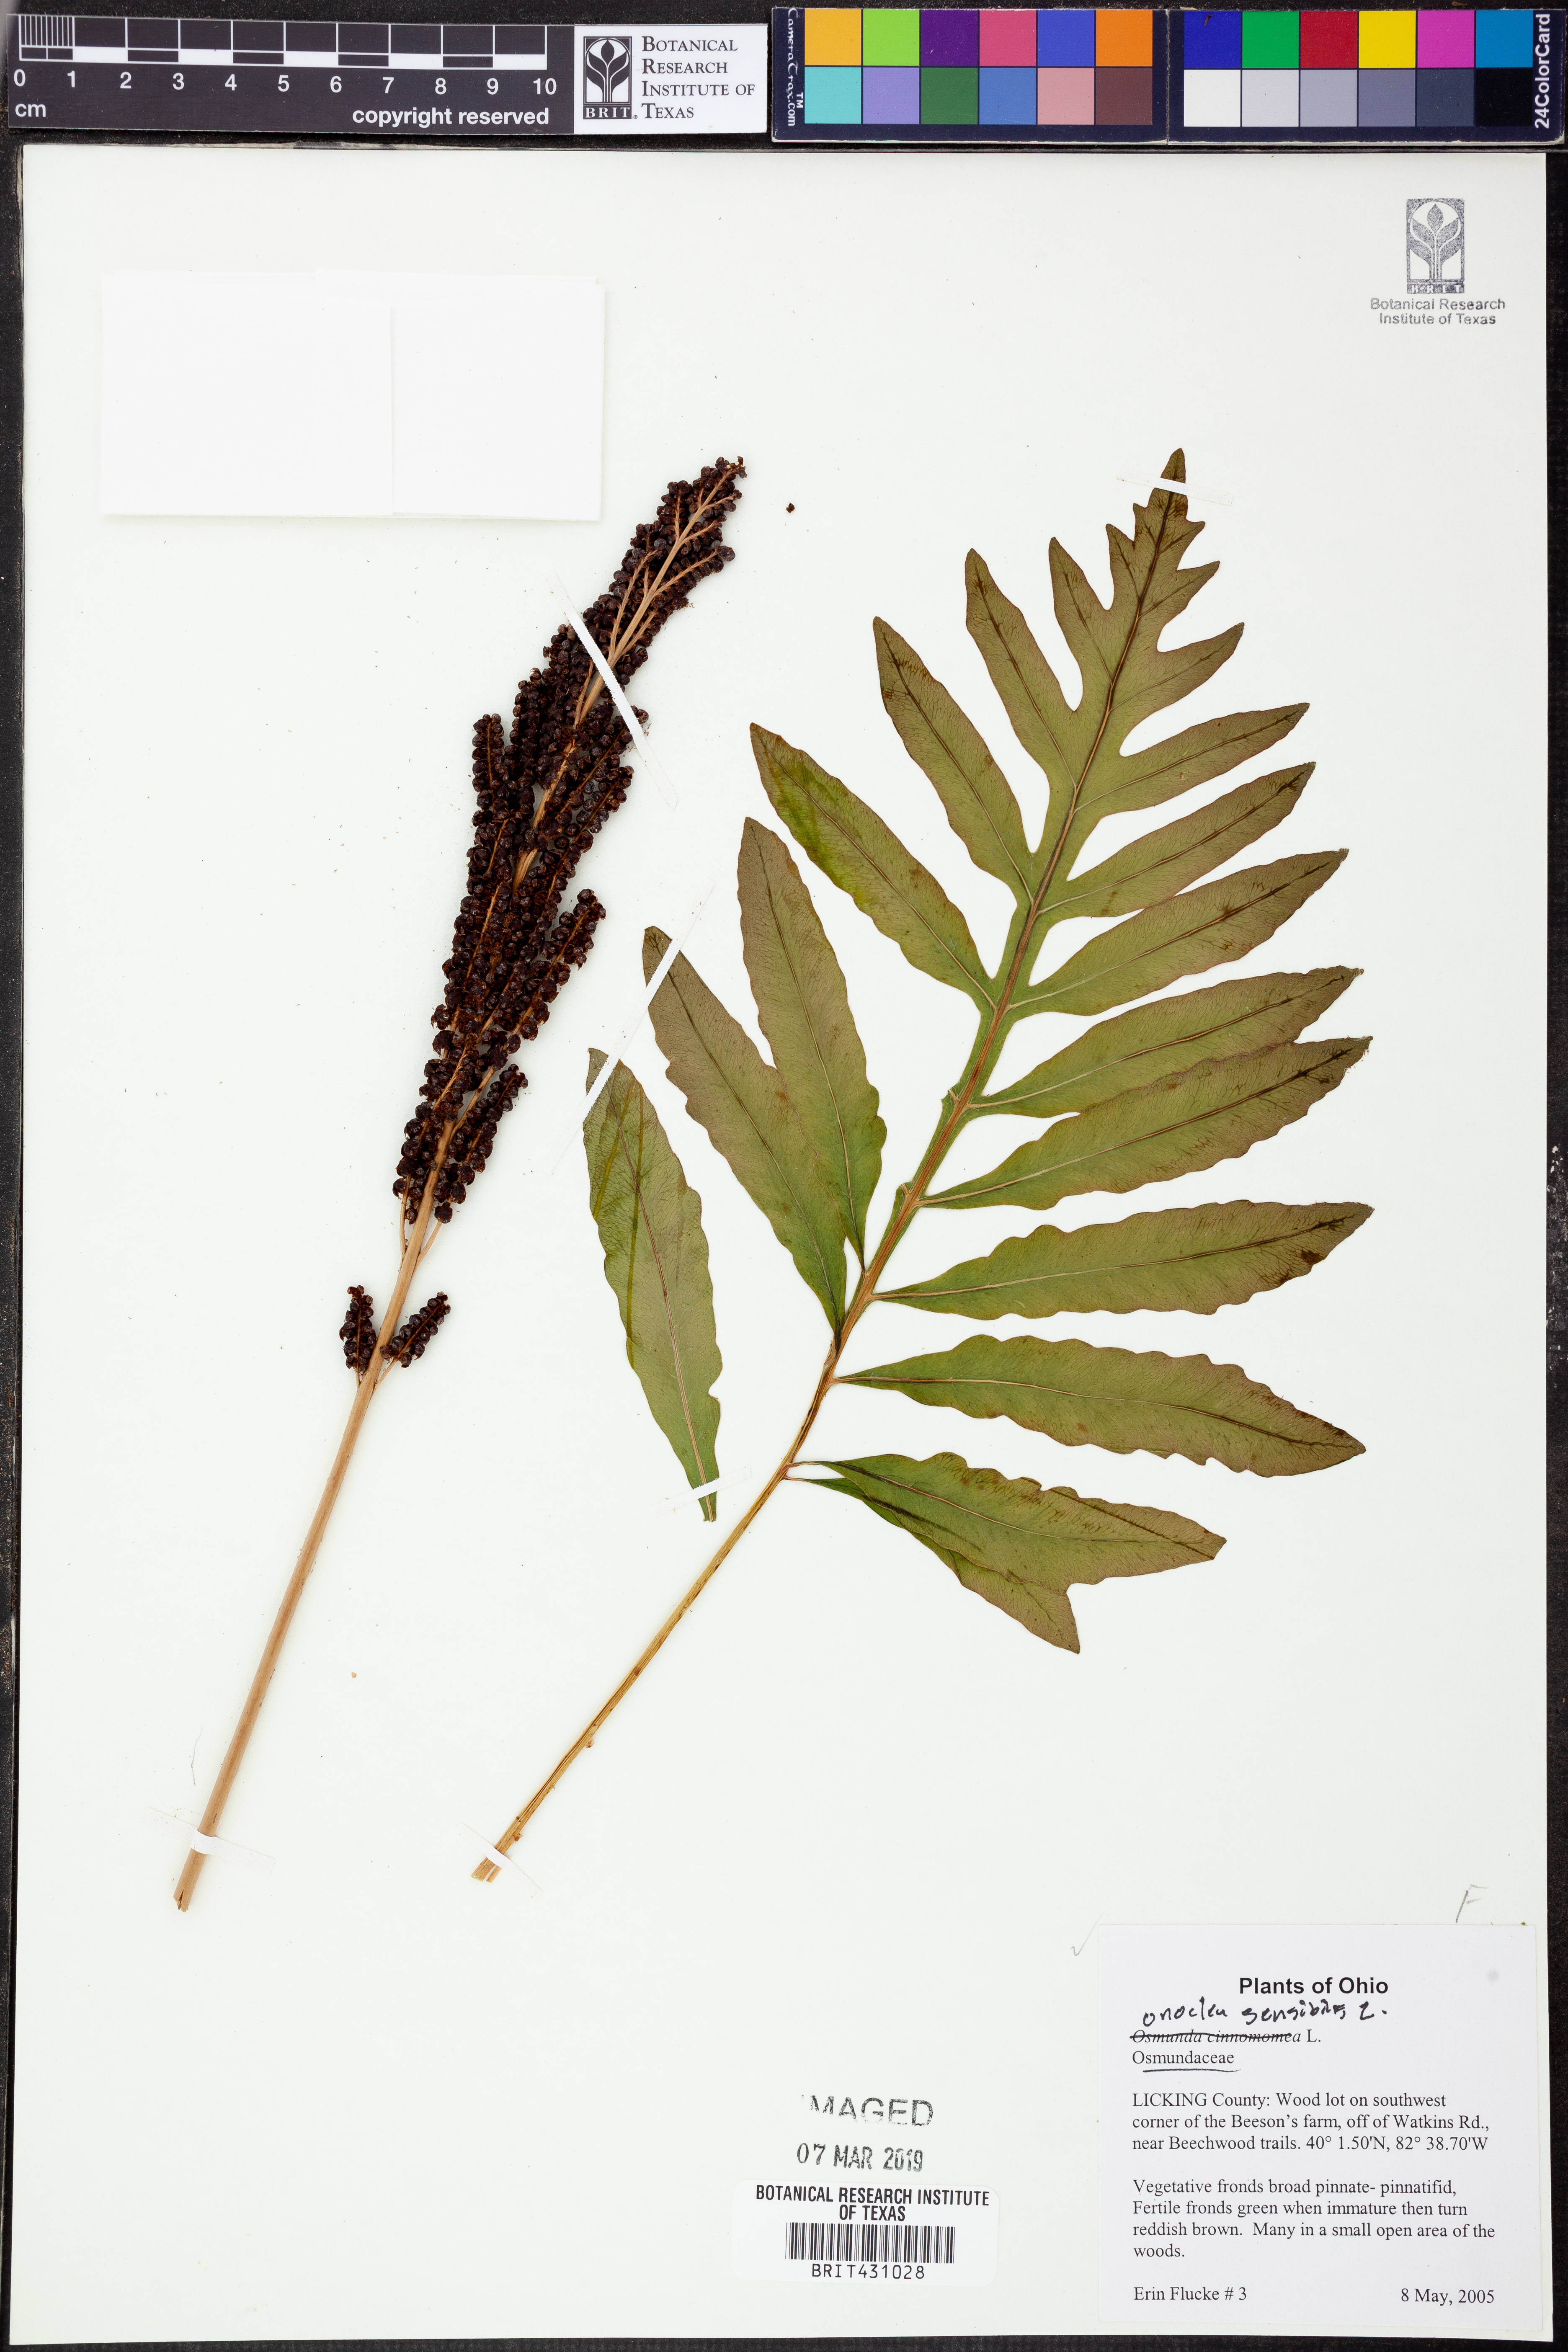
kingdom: Plantae
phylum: Tracheophyta
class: Polypodiopsida
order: Polypodiales
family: Onocleaceae
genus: Onoclea
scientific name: Onoclea sensibilis
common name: Sensitive fern
